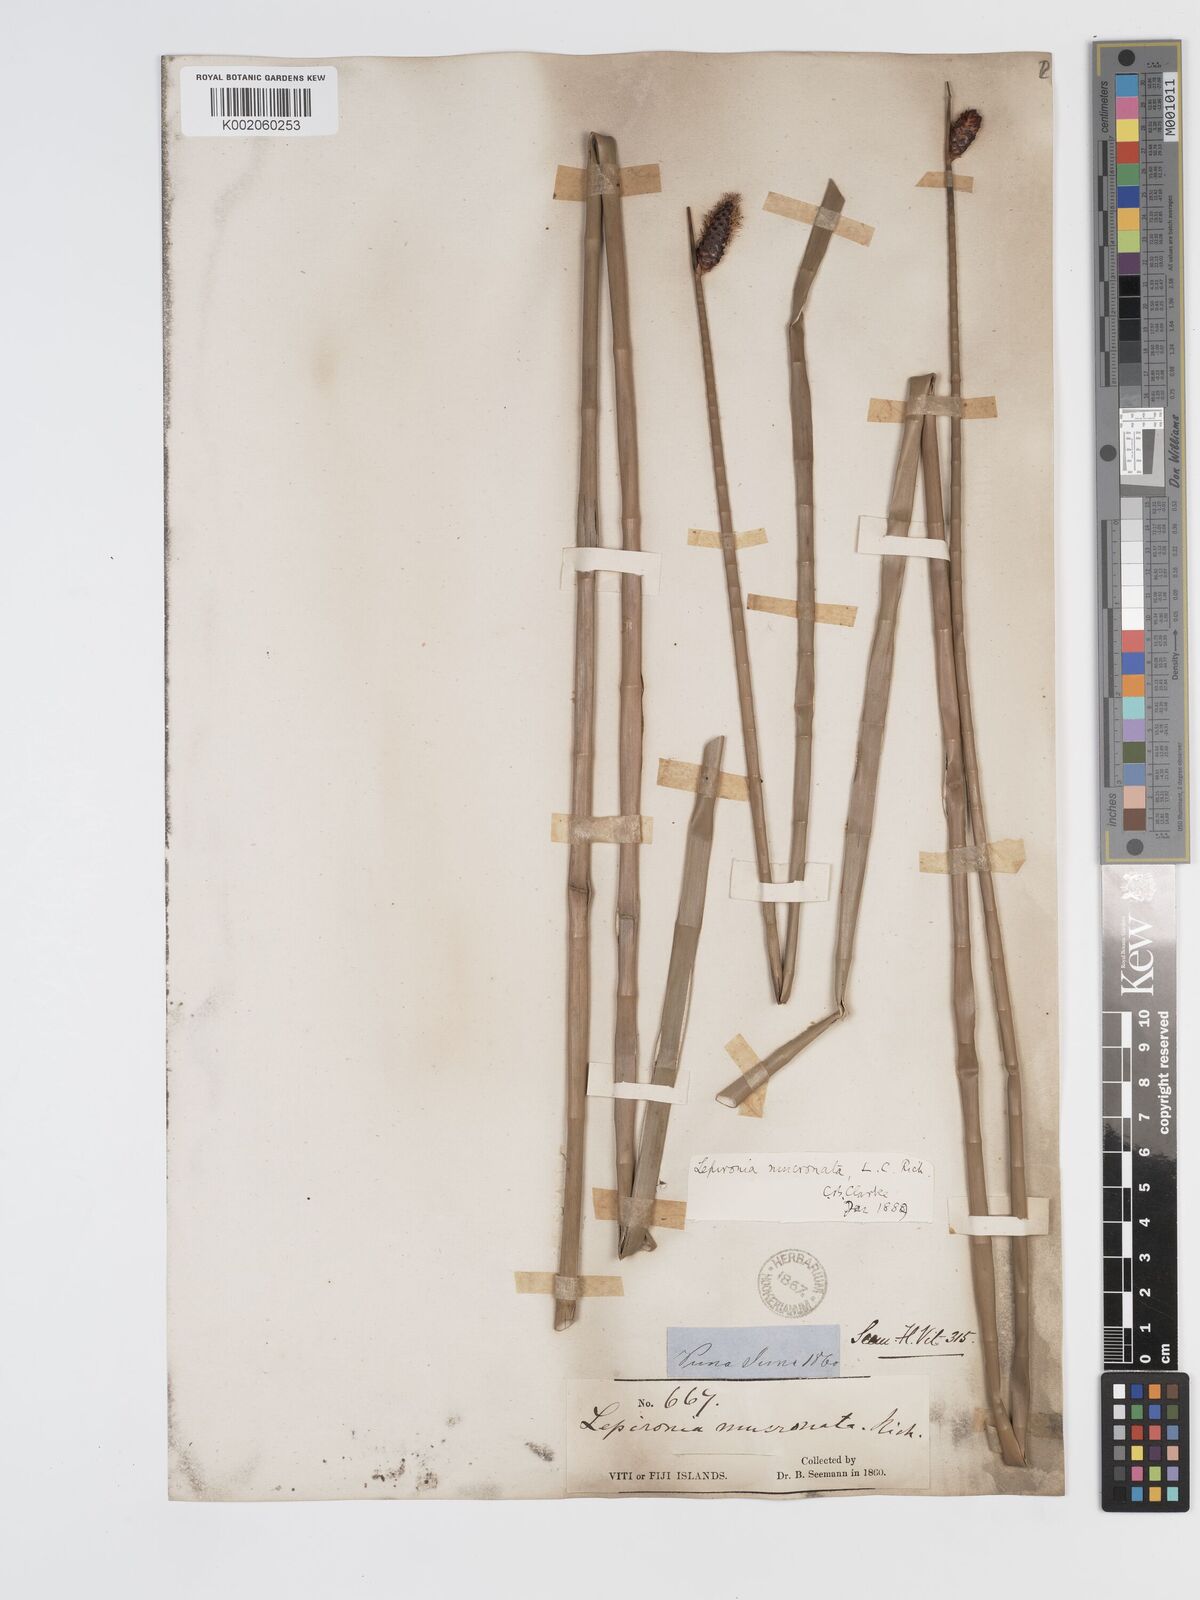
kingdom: Plantae
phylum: Tracheophyta
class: Liliopsida
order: Poales
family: Cyperaceae
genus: Lepironia
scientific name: Lepironia articulata
